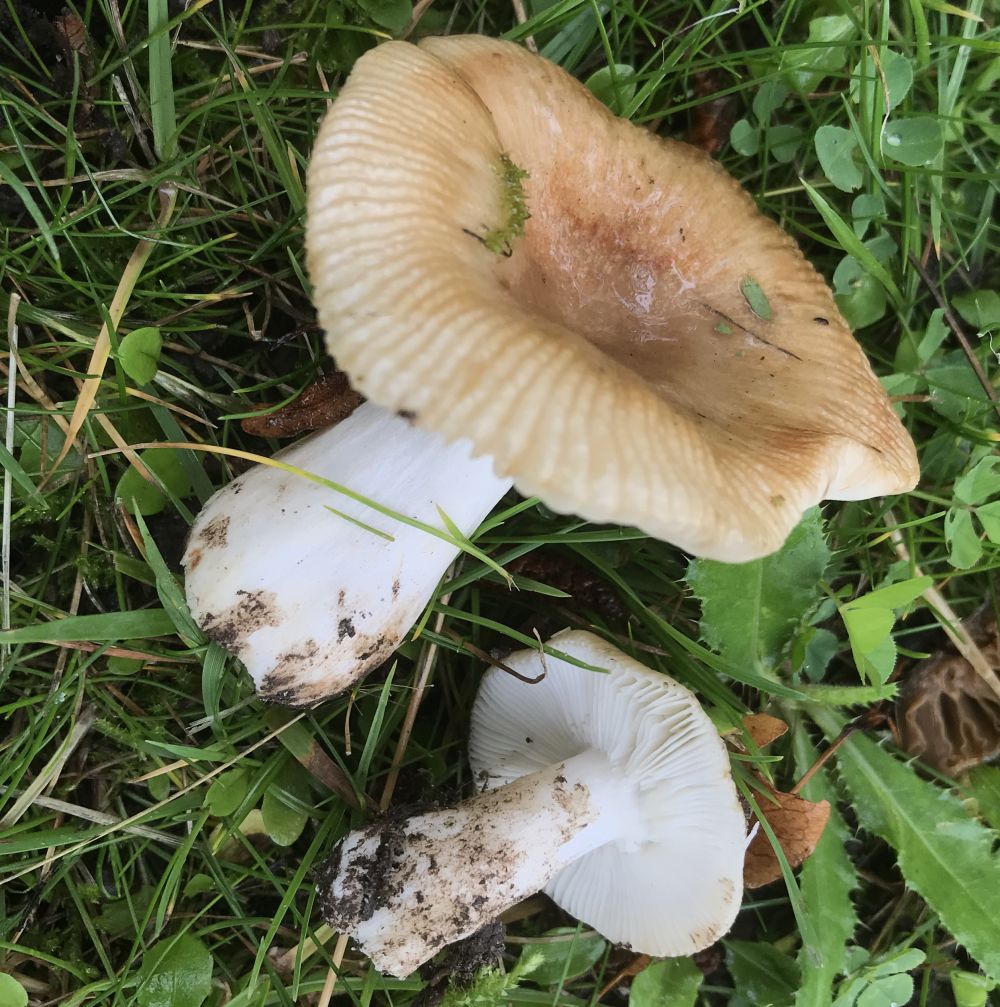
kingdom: Fungi
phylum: Basidiomycota
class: Agaricomycetes
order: Russulales
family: Russulaceae
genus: Russula
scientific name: Russula recondita
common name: mild kam-skørhat
